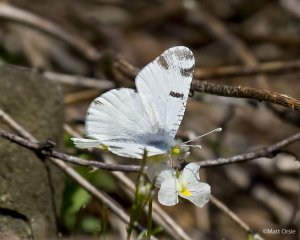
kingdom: Animalia
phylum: Arthropoda
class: Insecta
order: Lepidoptera
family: Pieridae
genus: Euchloe
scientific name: Euchloe olympia
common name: Olympia Marble
